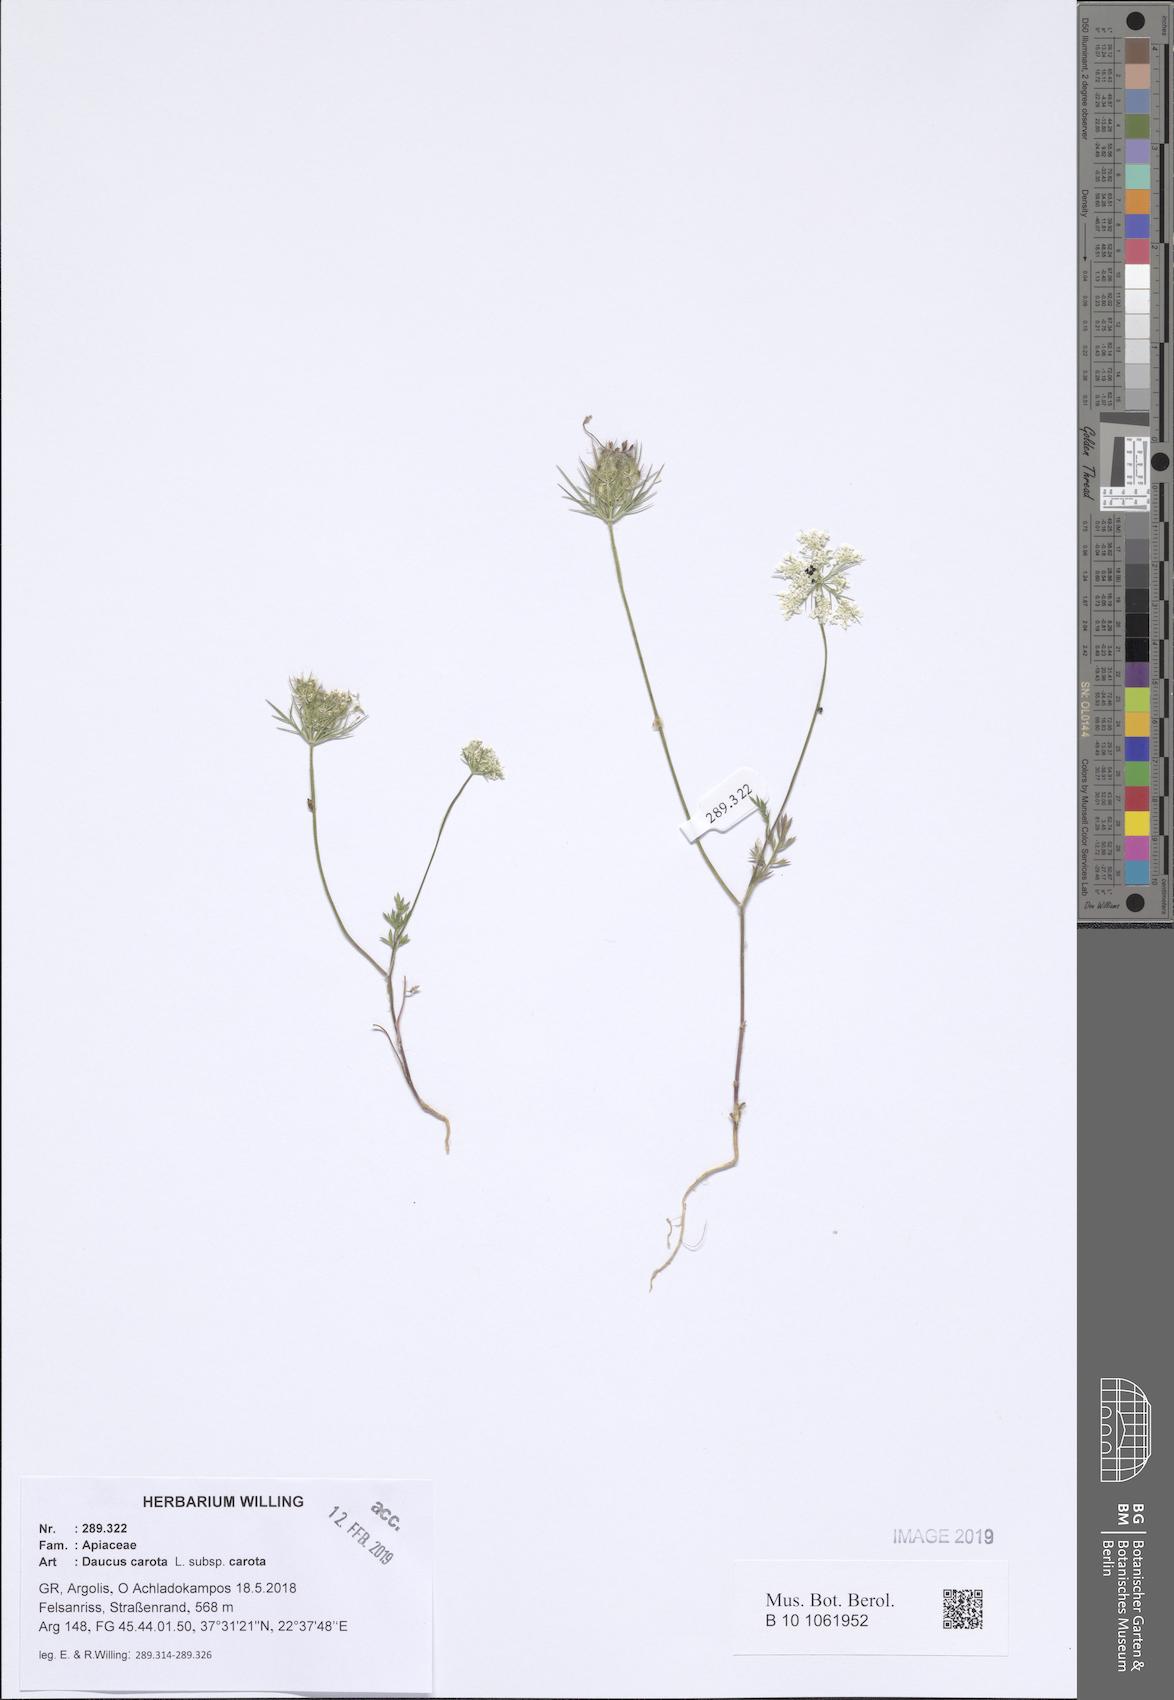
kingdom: Plantae
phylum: Tracheophyta
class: Magnoliopsida
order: Apiales
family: Apiaceae
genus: Daucus
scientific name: Daucus carota
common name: Wild carrot
